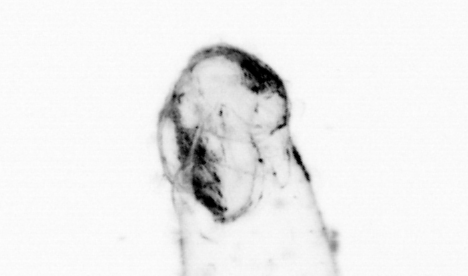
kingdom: Animalia
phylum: Chaetognatha
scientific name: Chaetognatha
